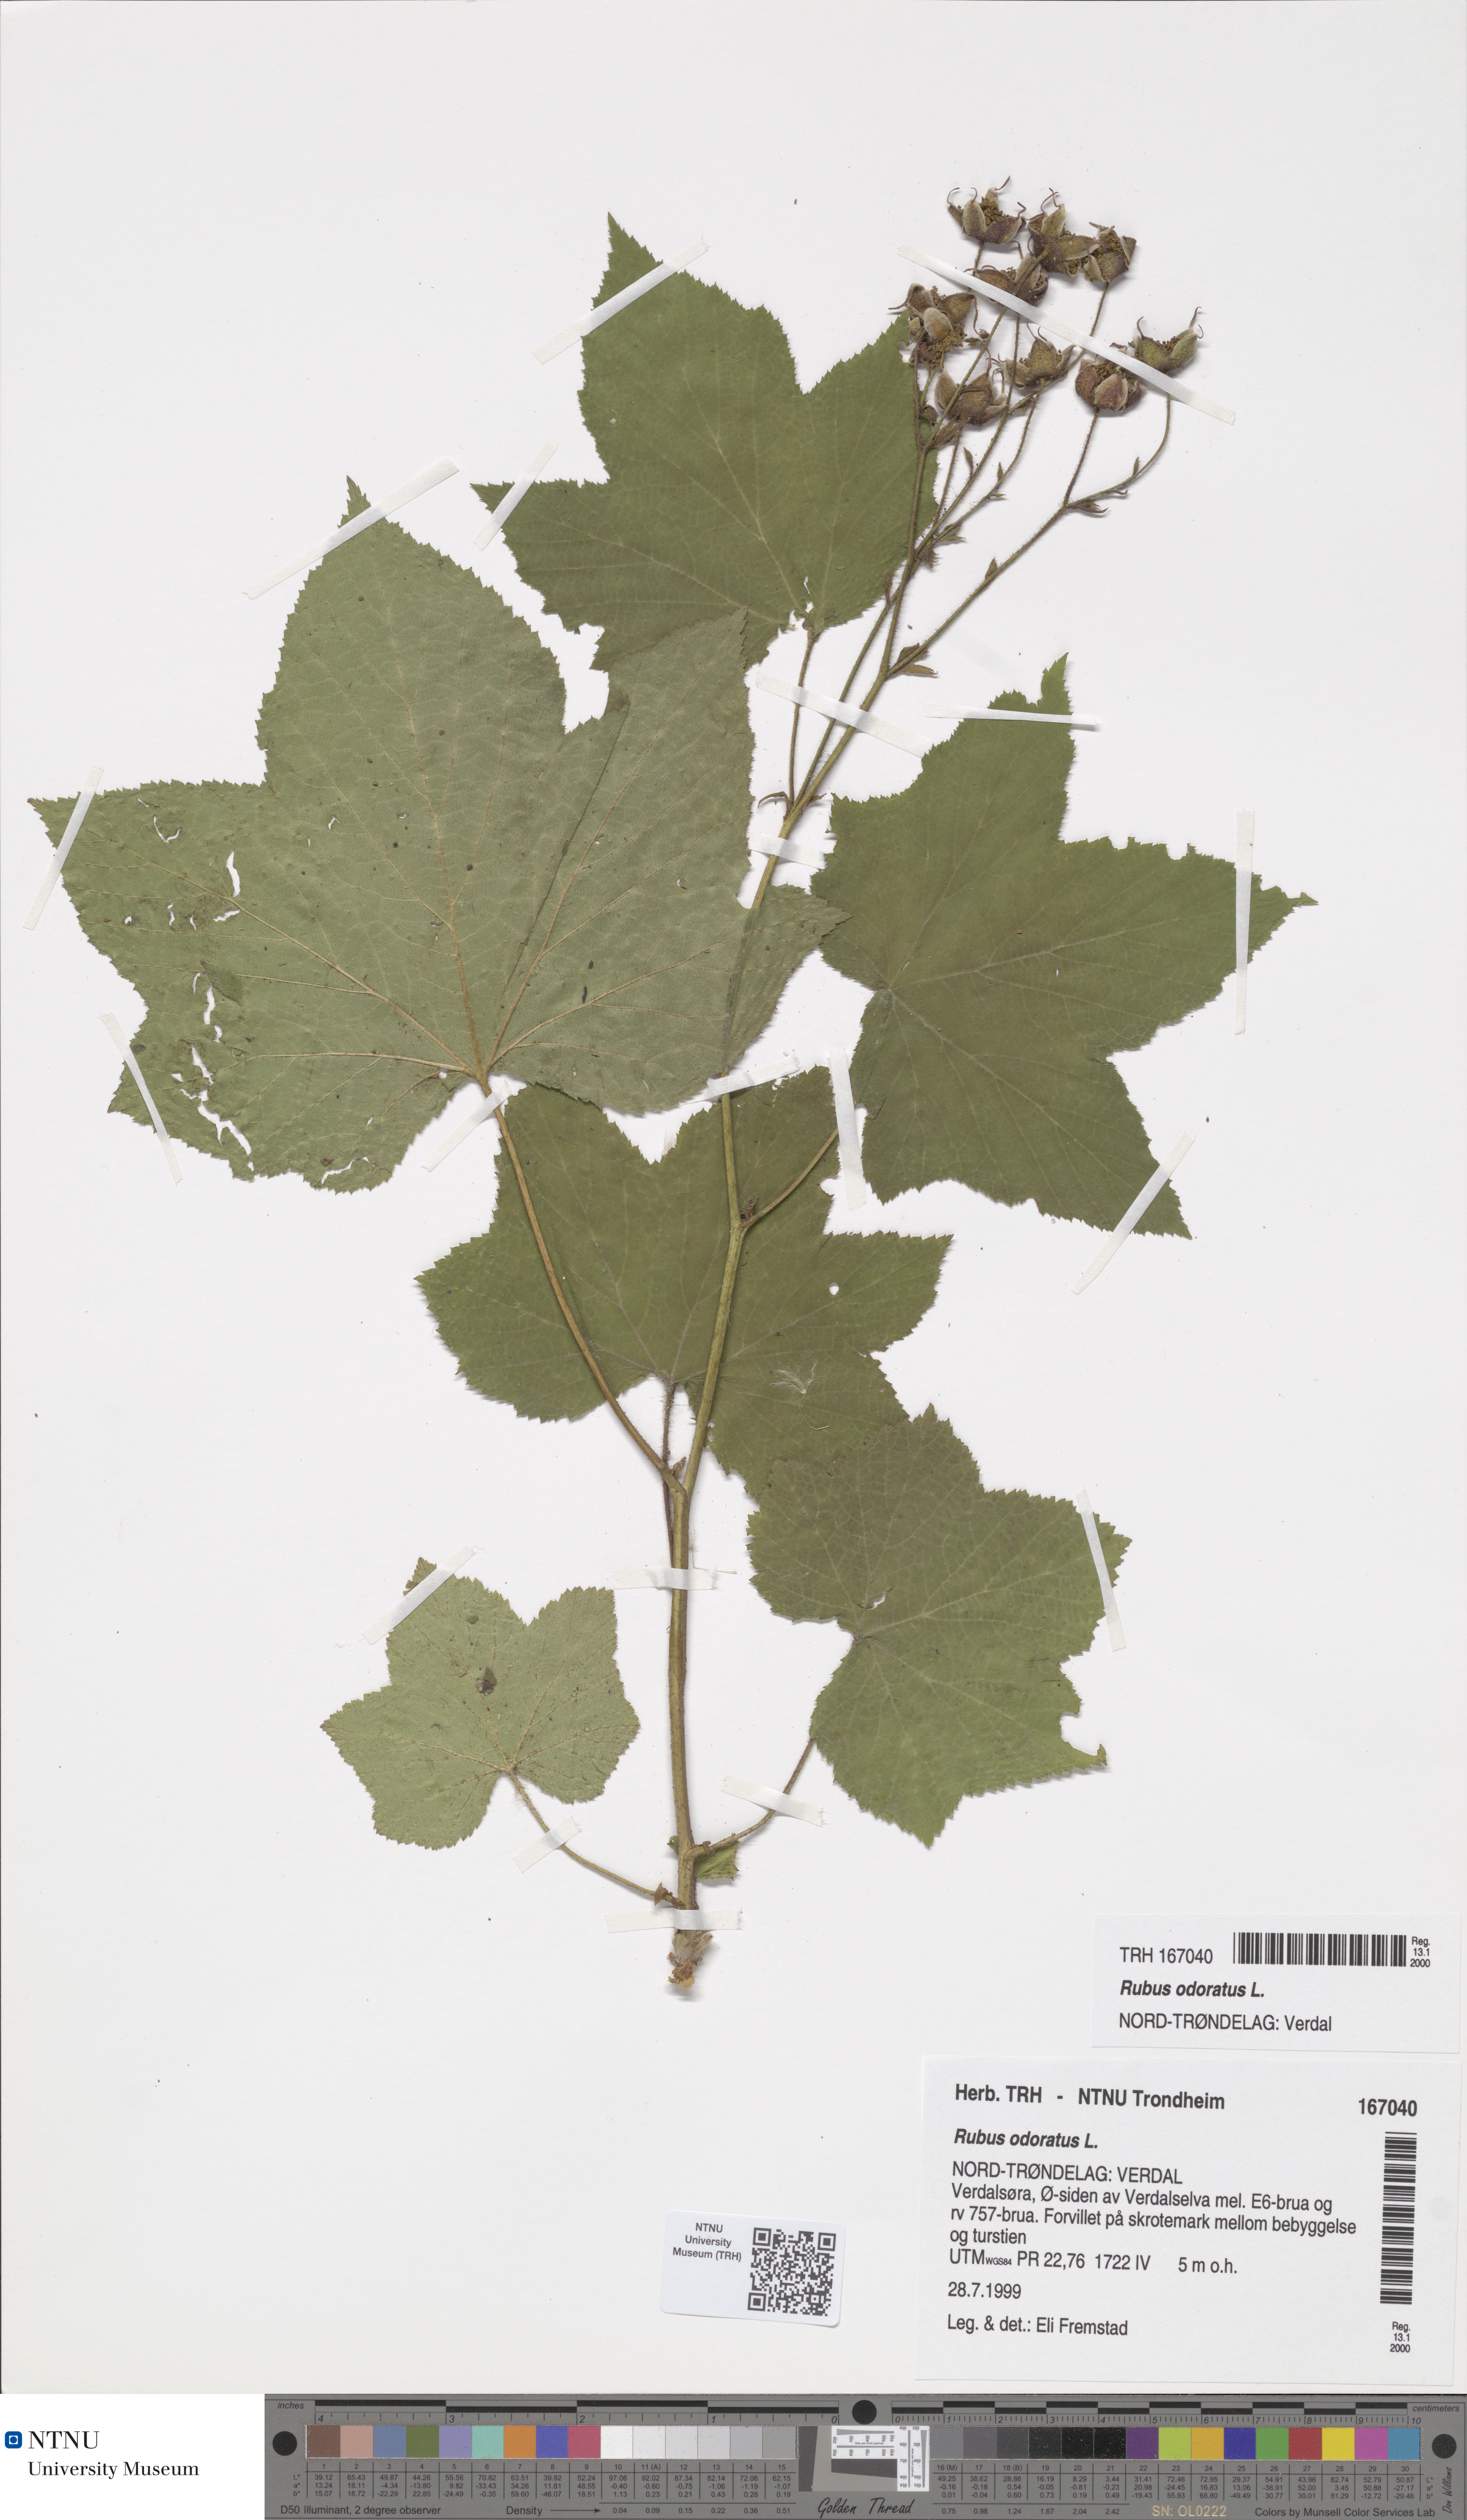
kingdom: Plantae
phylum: Tracheophyta
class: Magnoliopsida
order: Rosales
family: Rosaceae
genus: Rubus
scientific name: Rubus odoratus
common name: Purple-flowered raspberry
